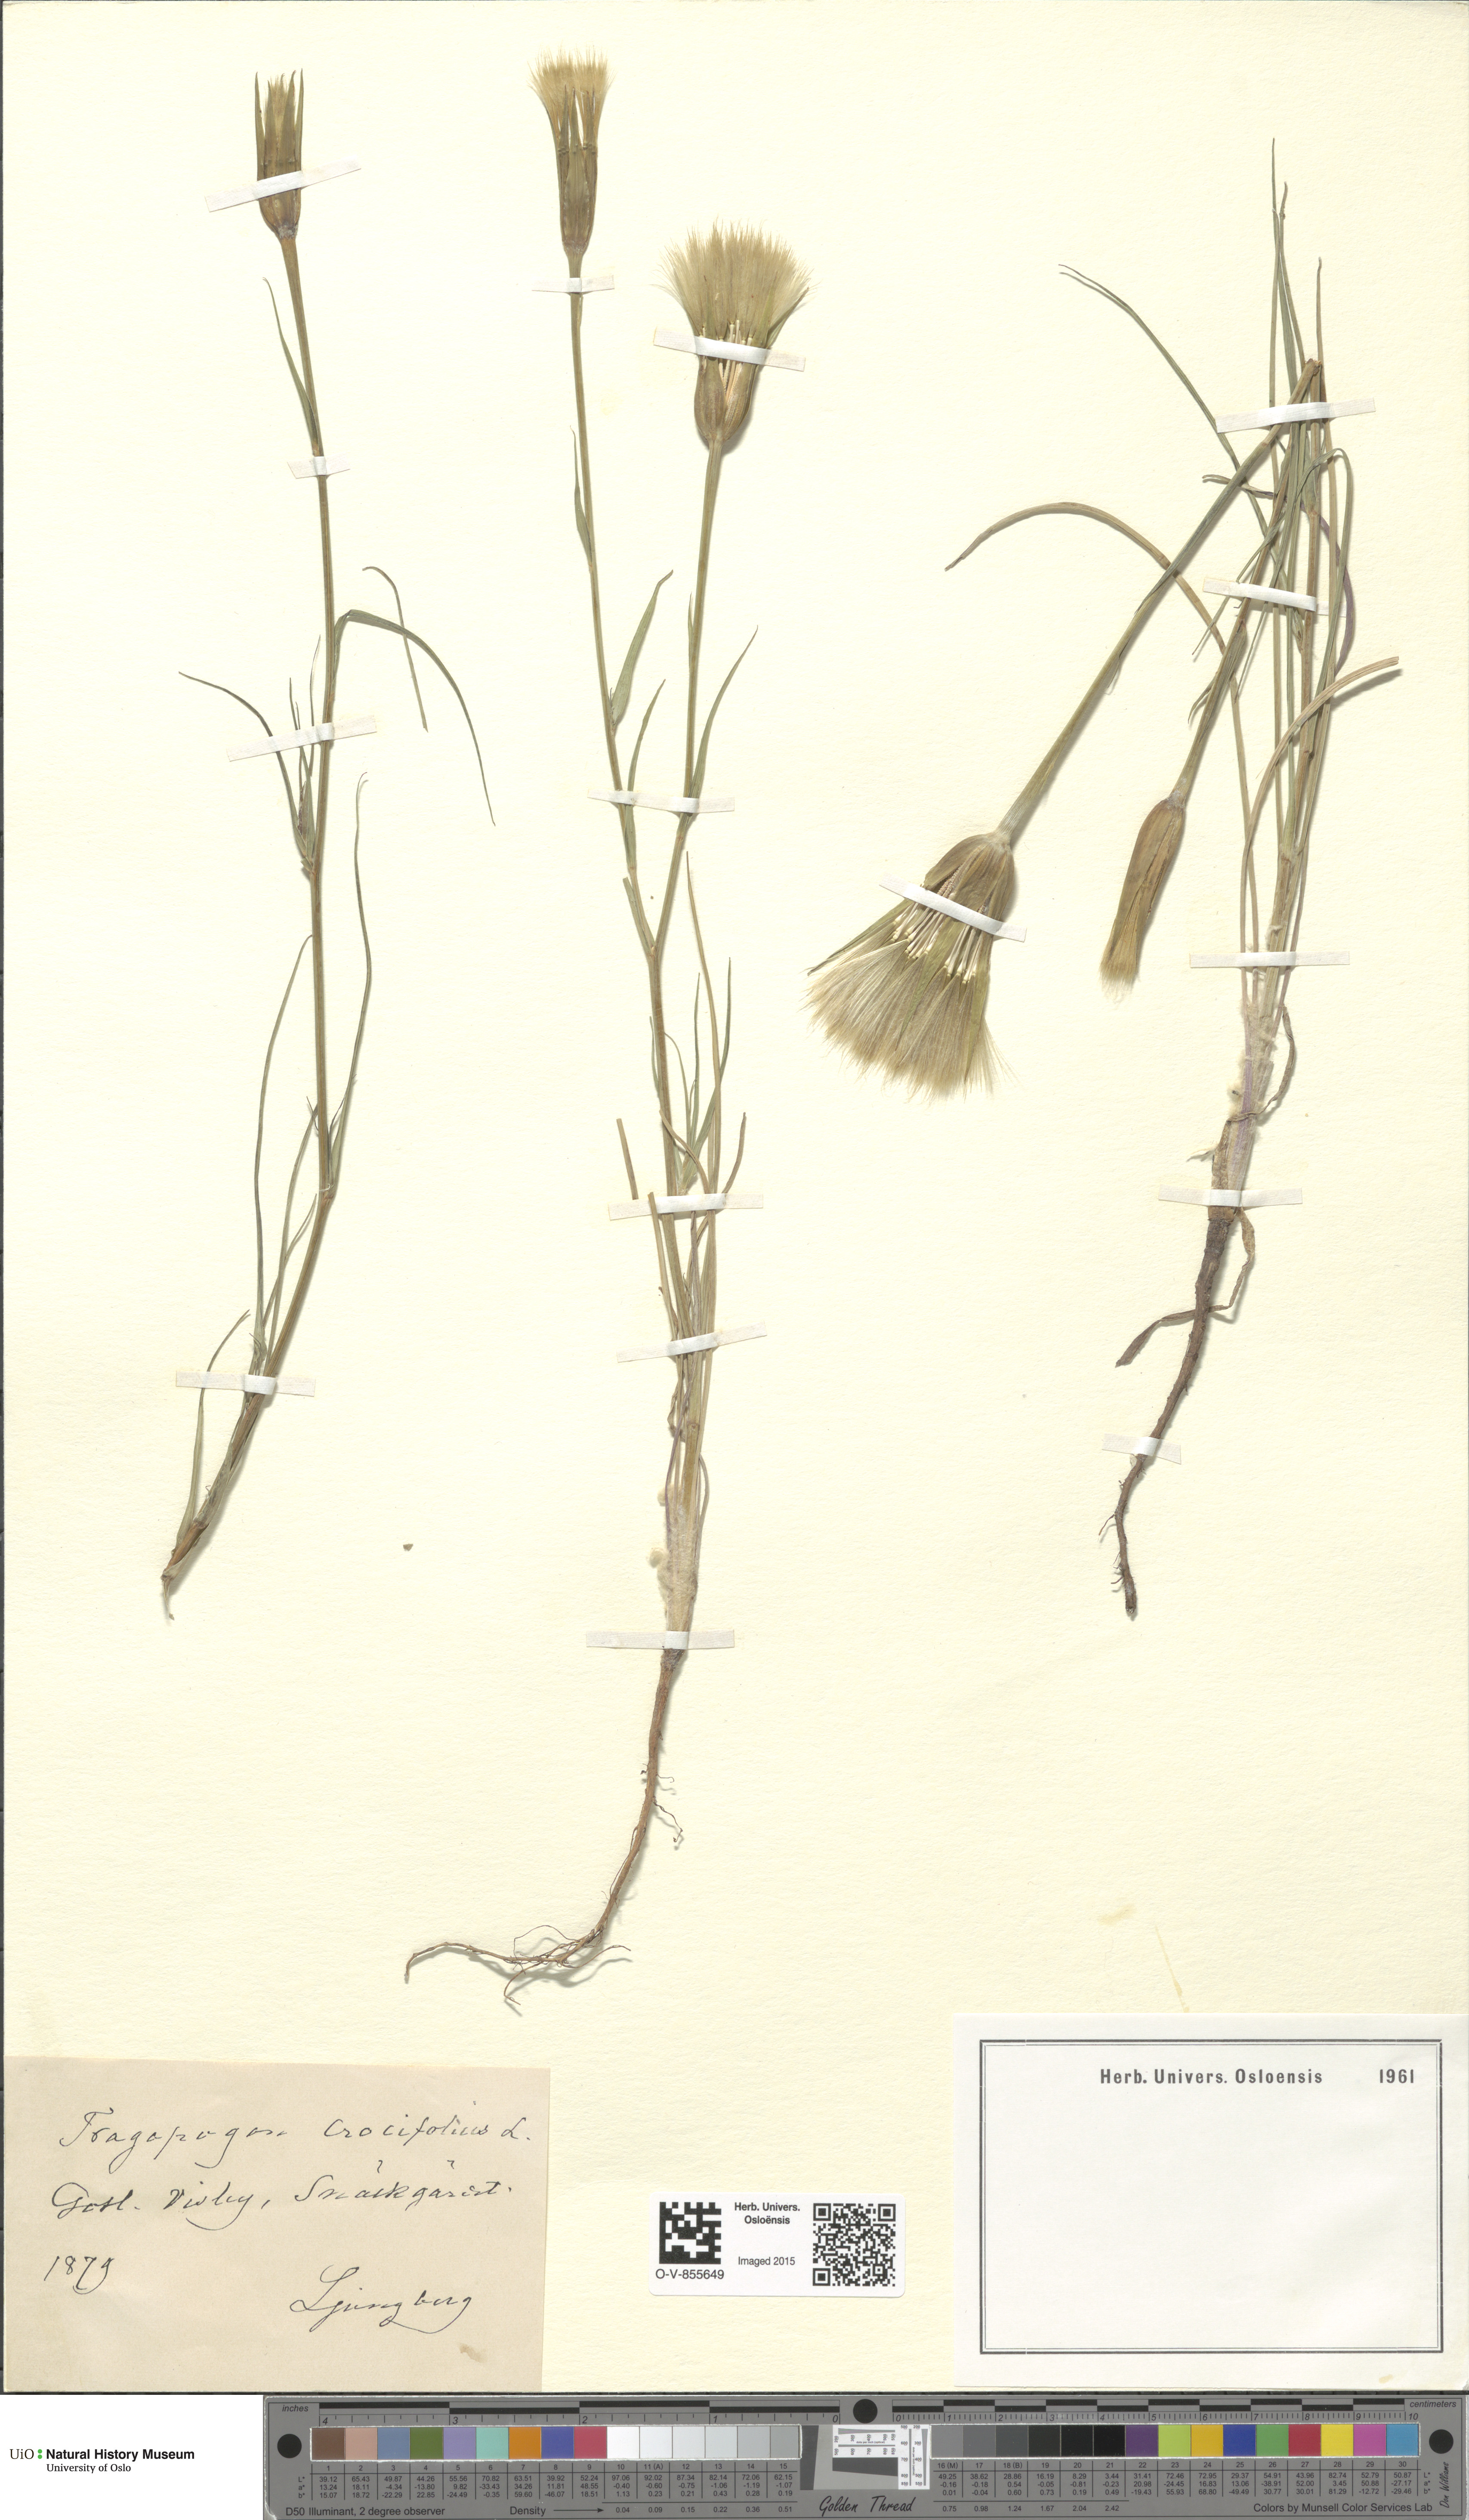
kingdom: Plantae
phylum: Tracheophyta
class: Magnoliopsida
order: Asterales
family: Asteraceae
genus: Tragopogon
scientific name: Tragopogon crocifolius
